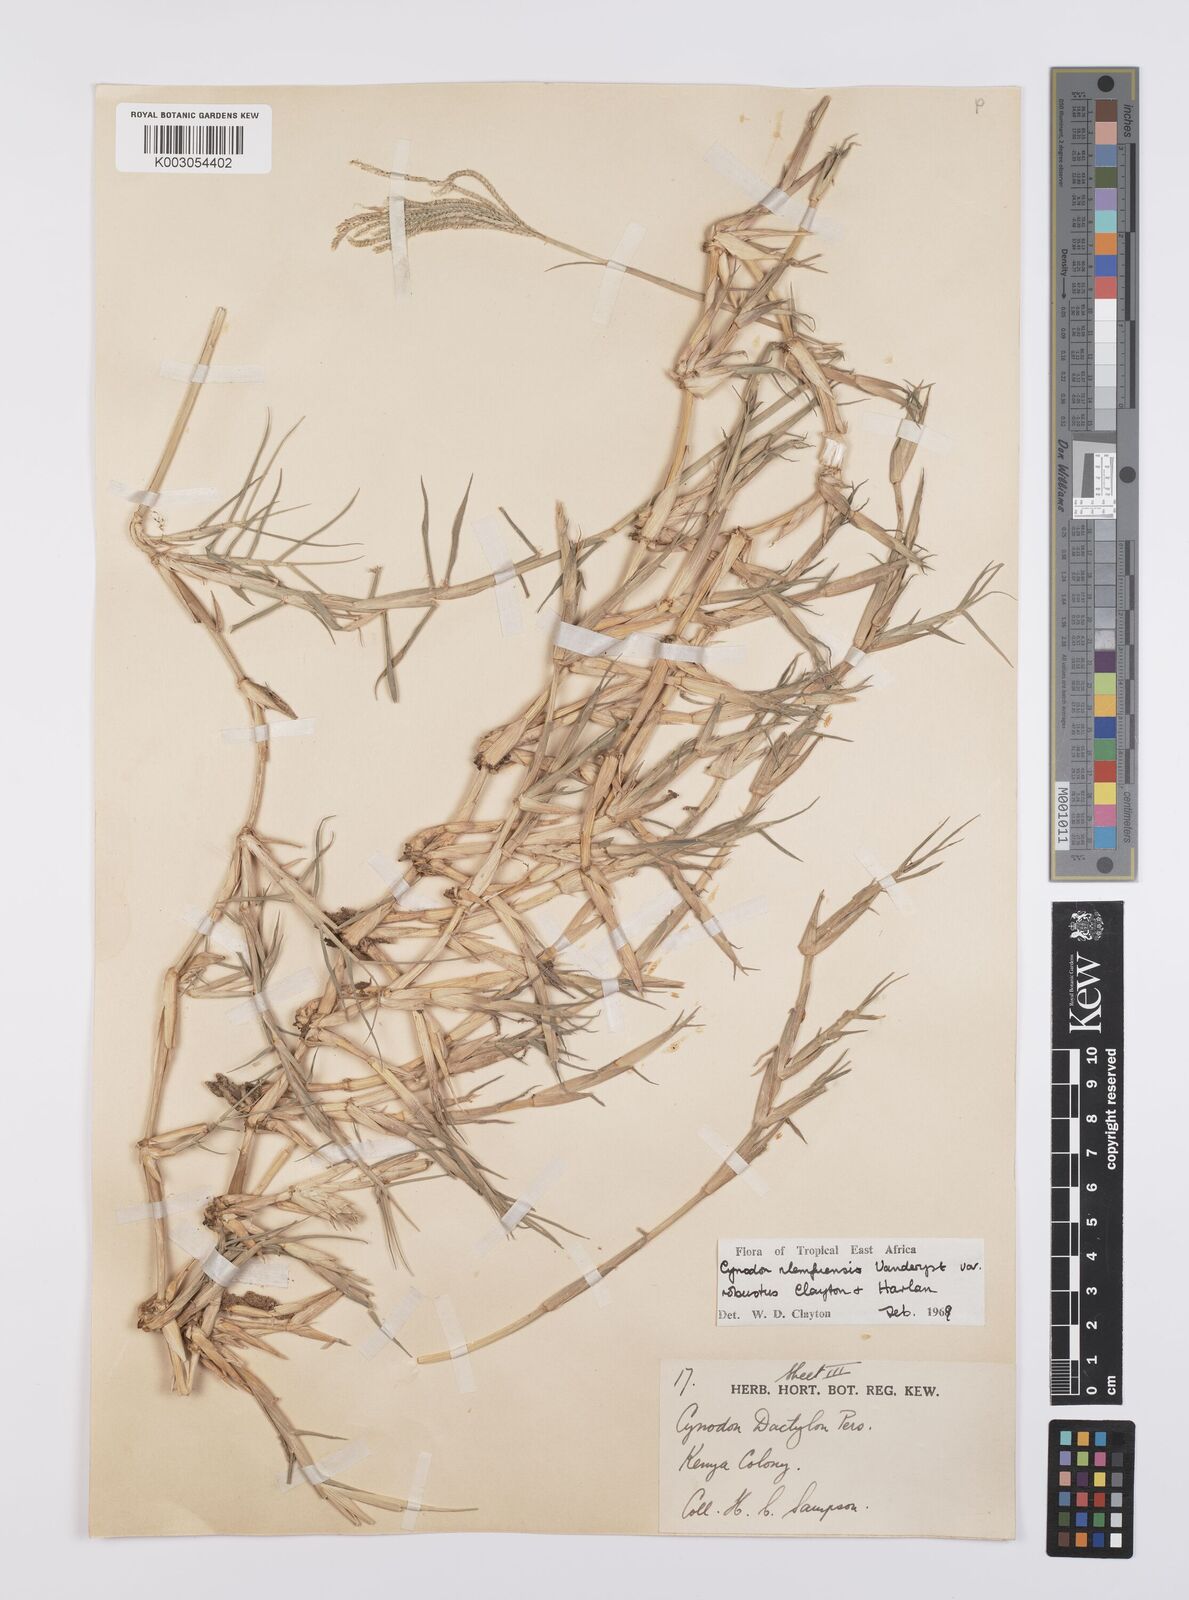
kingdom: Plantae
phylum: Tracheophyta
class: Liliopsida
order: Poales
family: Poaceae
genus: Cynodon
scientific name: Cynodon nlemfuensis
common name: African bermudagrass
